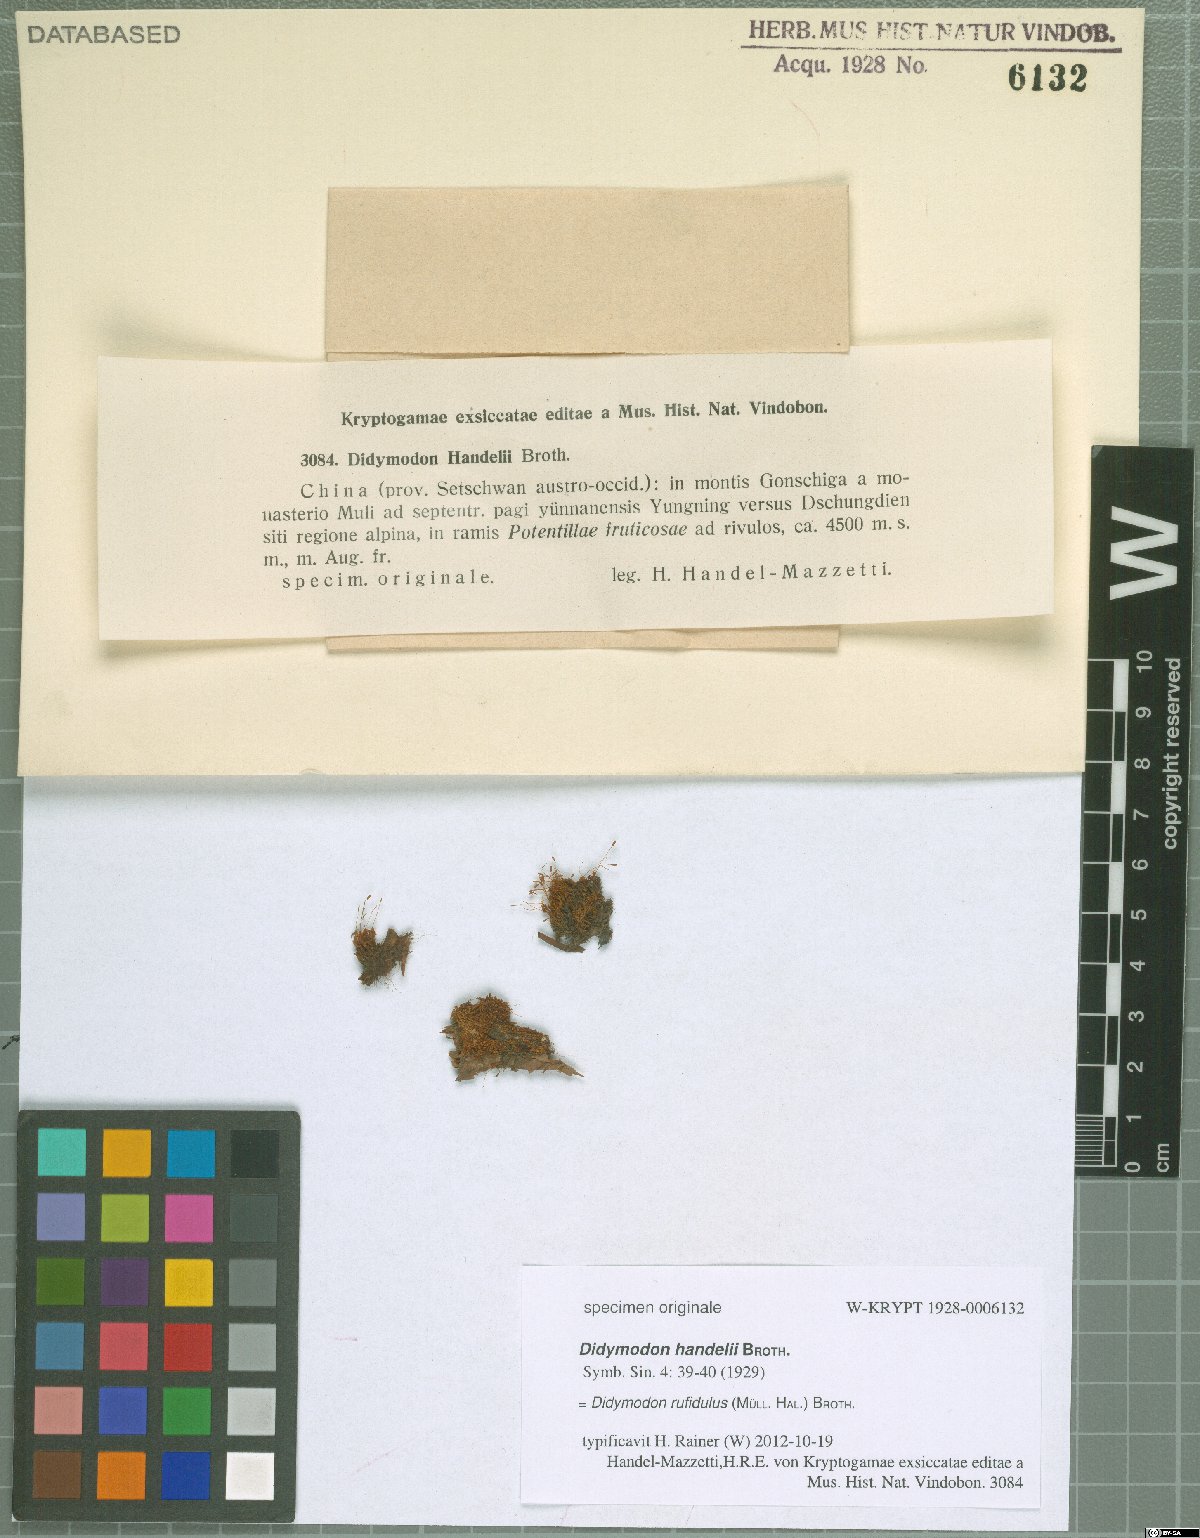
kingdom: Plantae
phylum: Bryophyta
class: Bryopsida
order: Pottiales
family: Pottiaceae
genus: Husnotiella
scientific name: Husnotiella rufidula
